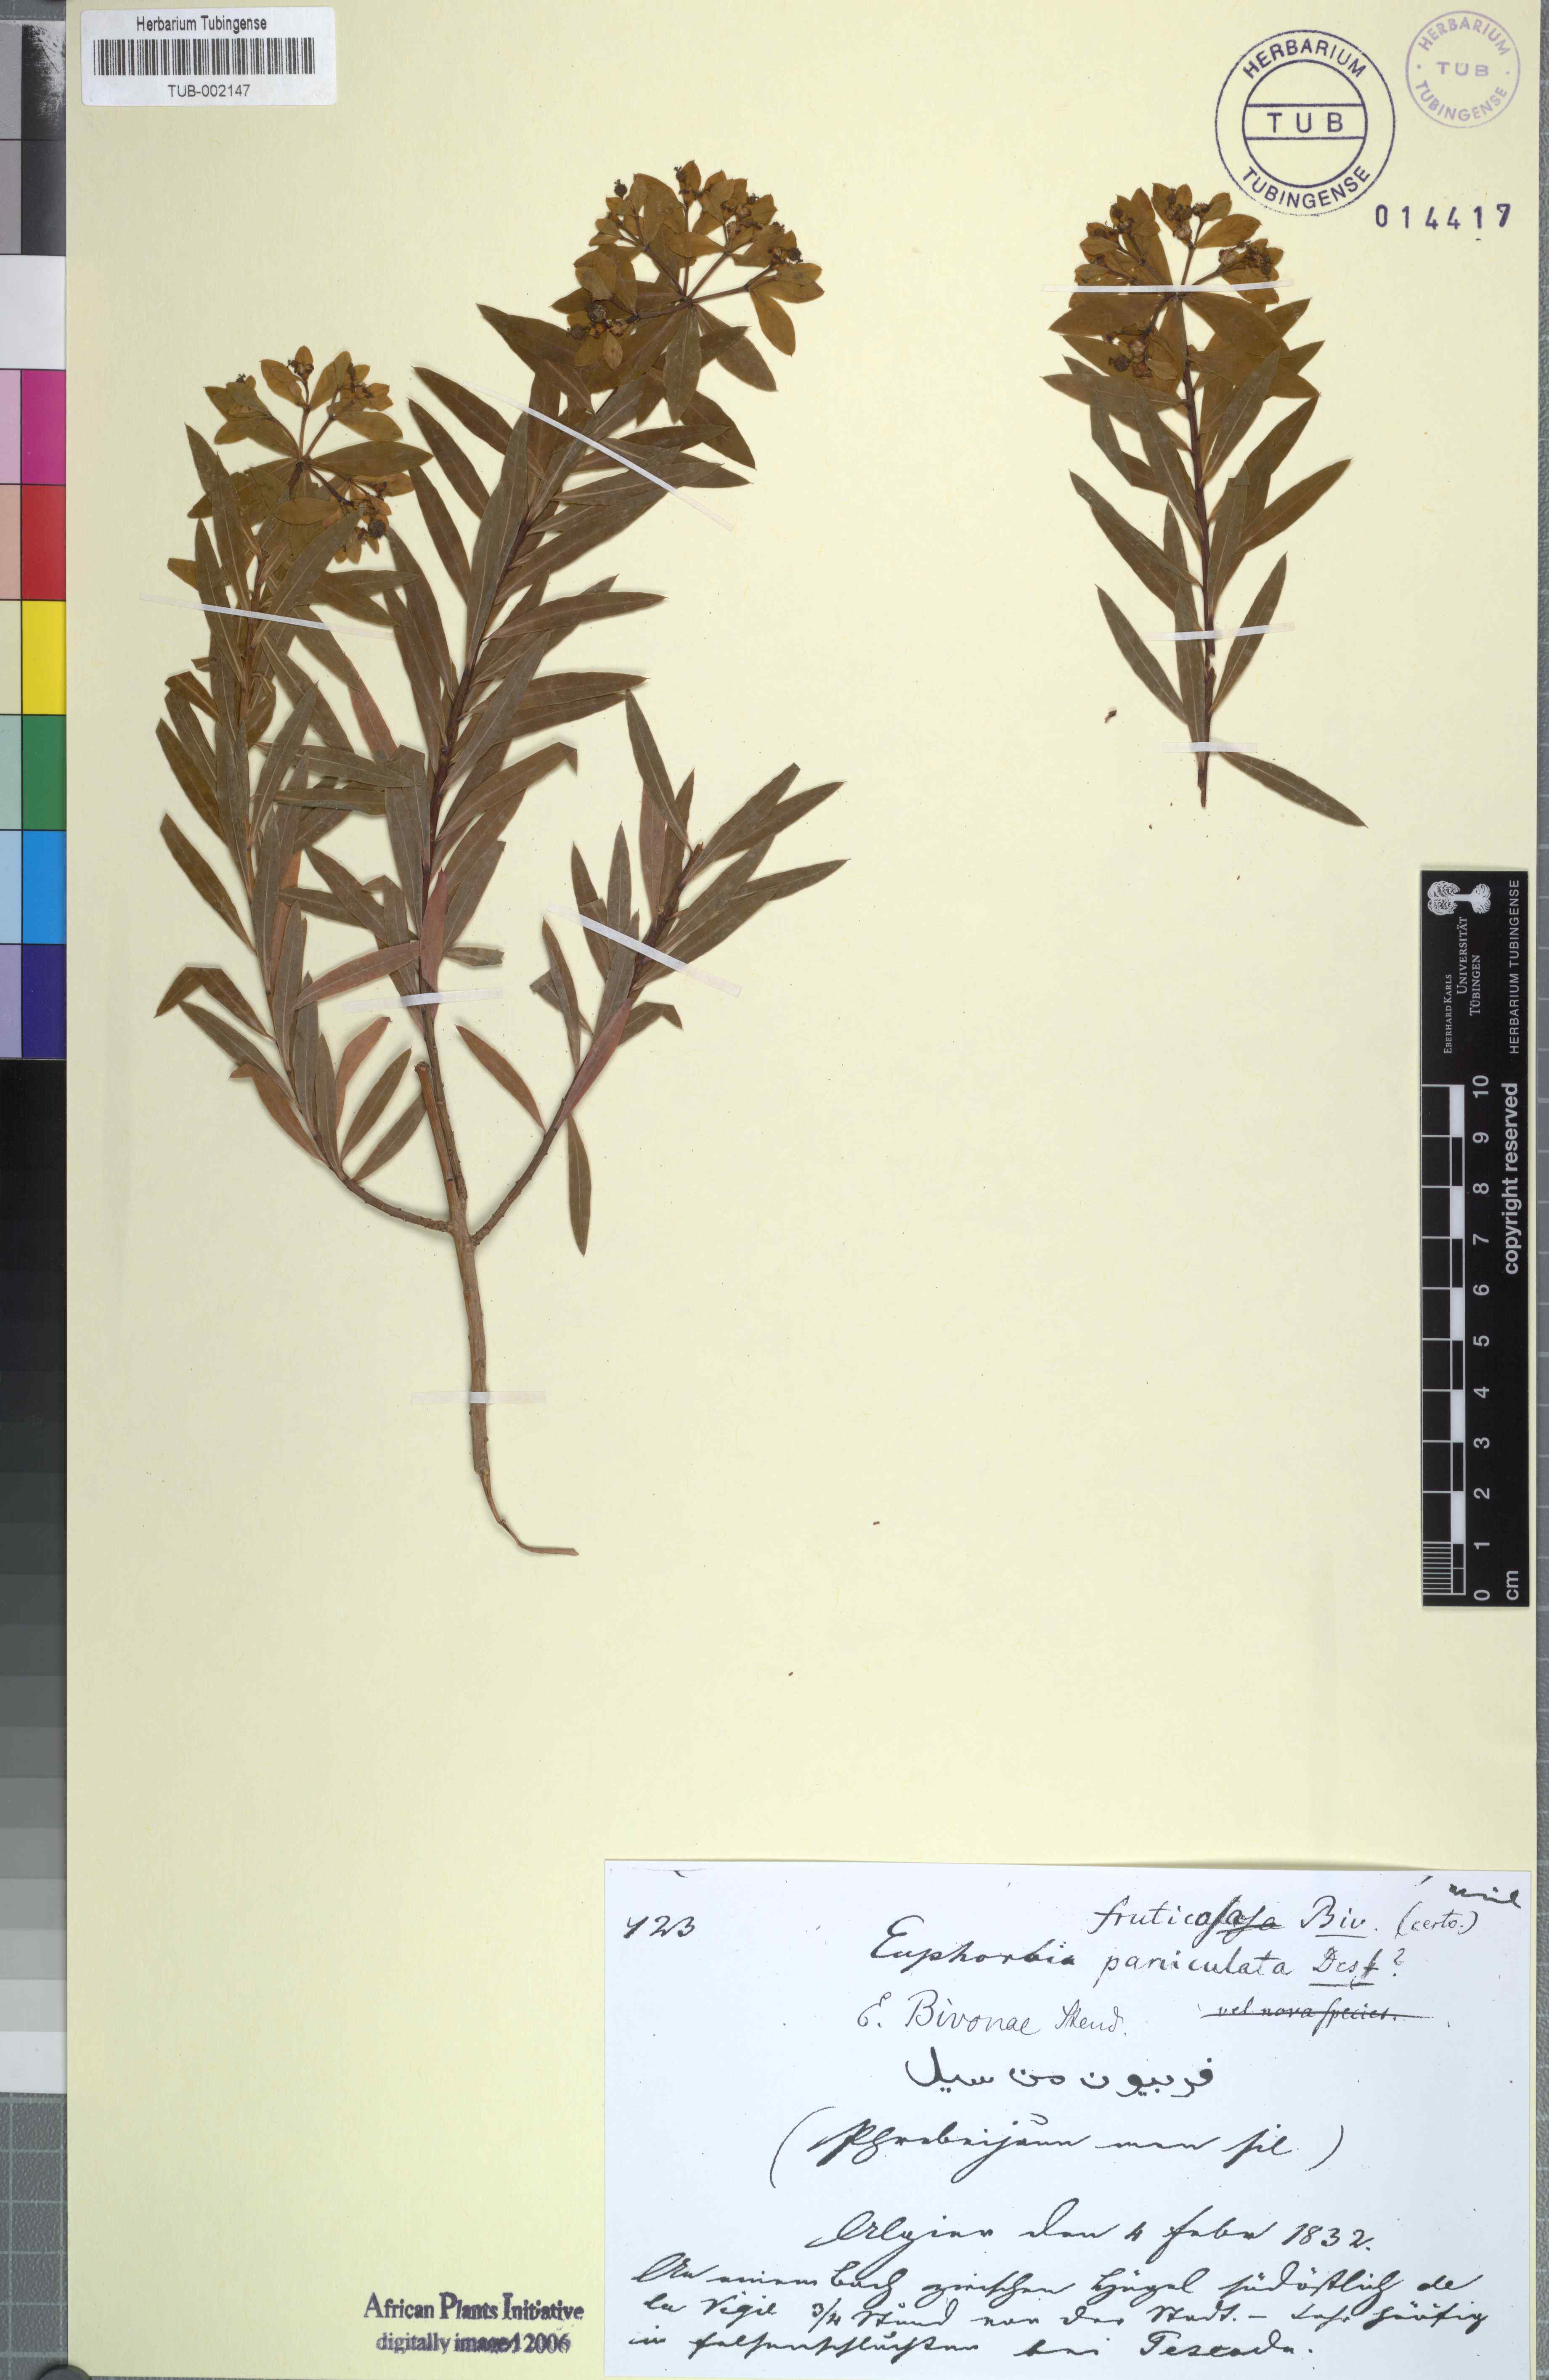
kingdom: Plantae
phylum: Tracheophyta
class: Magnoliopsida
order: Malpighiales
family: Euphorbiaceae
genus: Euphorbia
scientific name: Euphorbia bivonae
